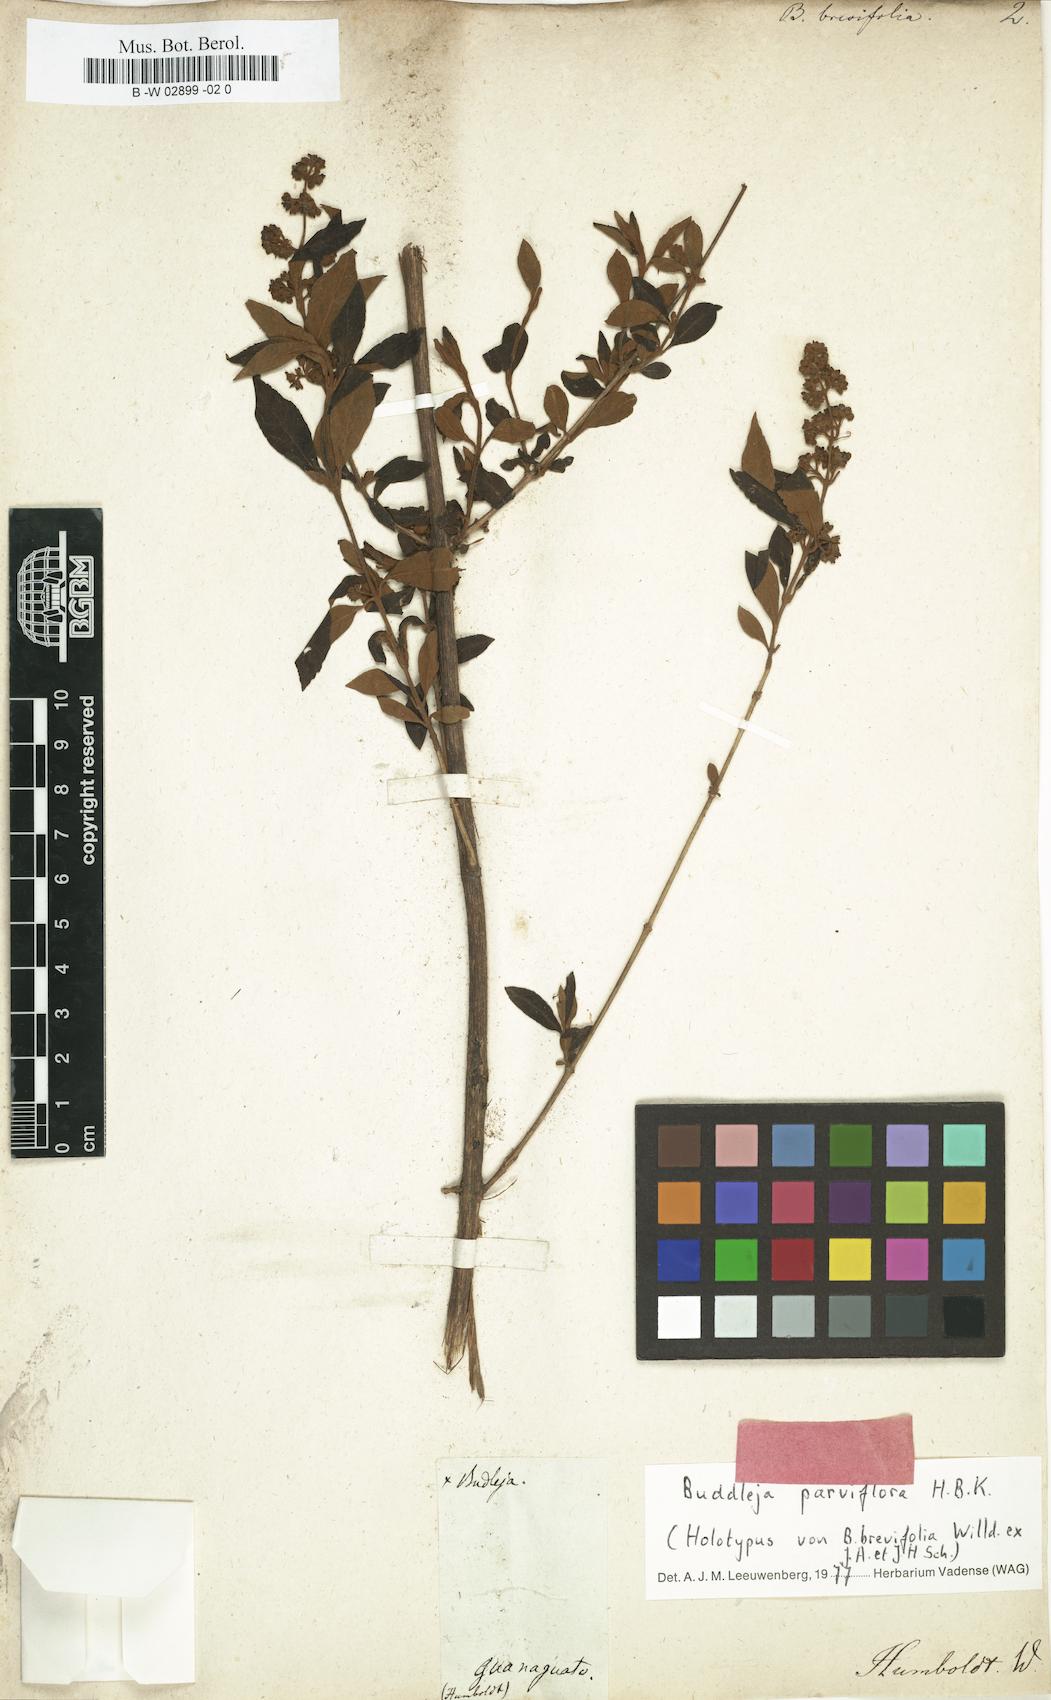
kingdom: Plantae
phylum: Tracheophyta
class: Magnoliopsida
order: Lamiales
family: Scrophulariaceae
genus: Buddleja
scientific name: Buddleja parviflora
